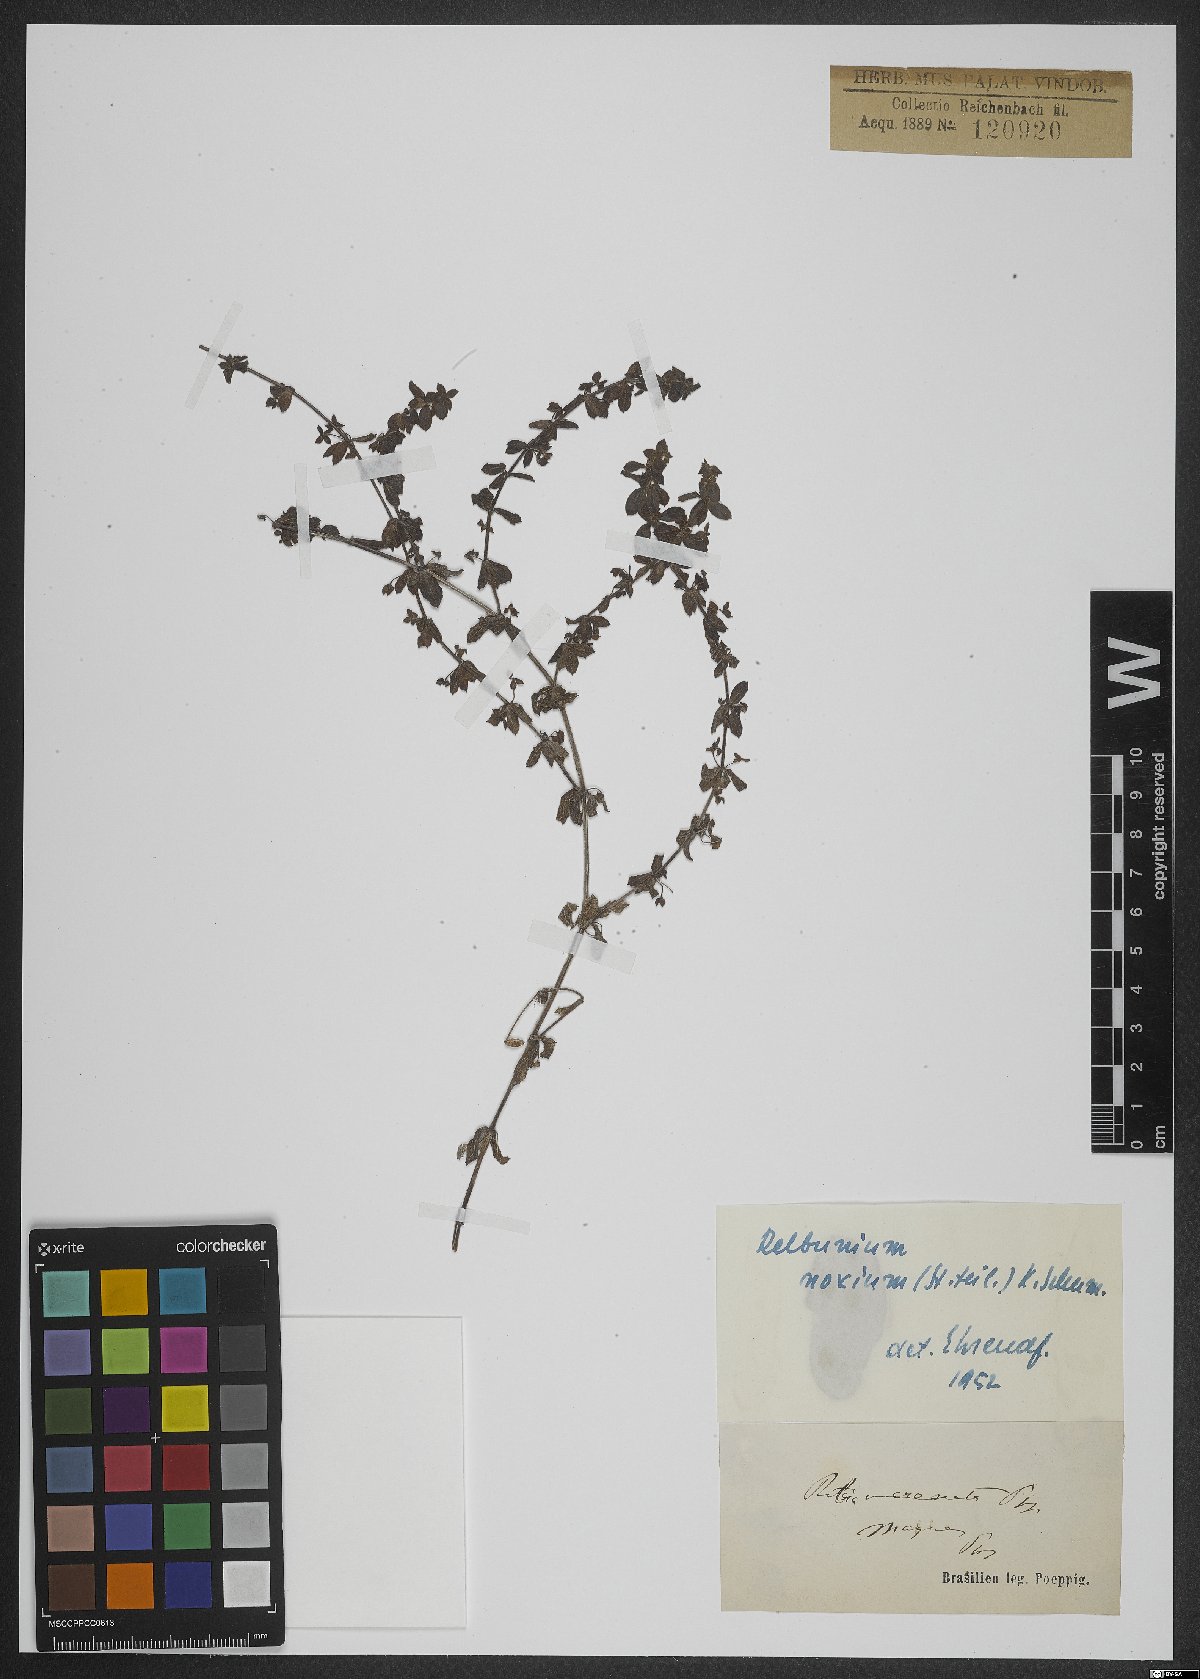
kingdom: Plantae
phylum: Tracheophyta
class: Magnoliopsida
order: Gentianales
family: Rubiaceae
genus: Galium
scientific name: Galium noxium
